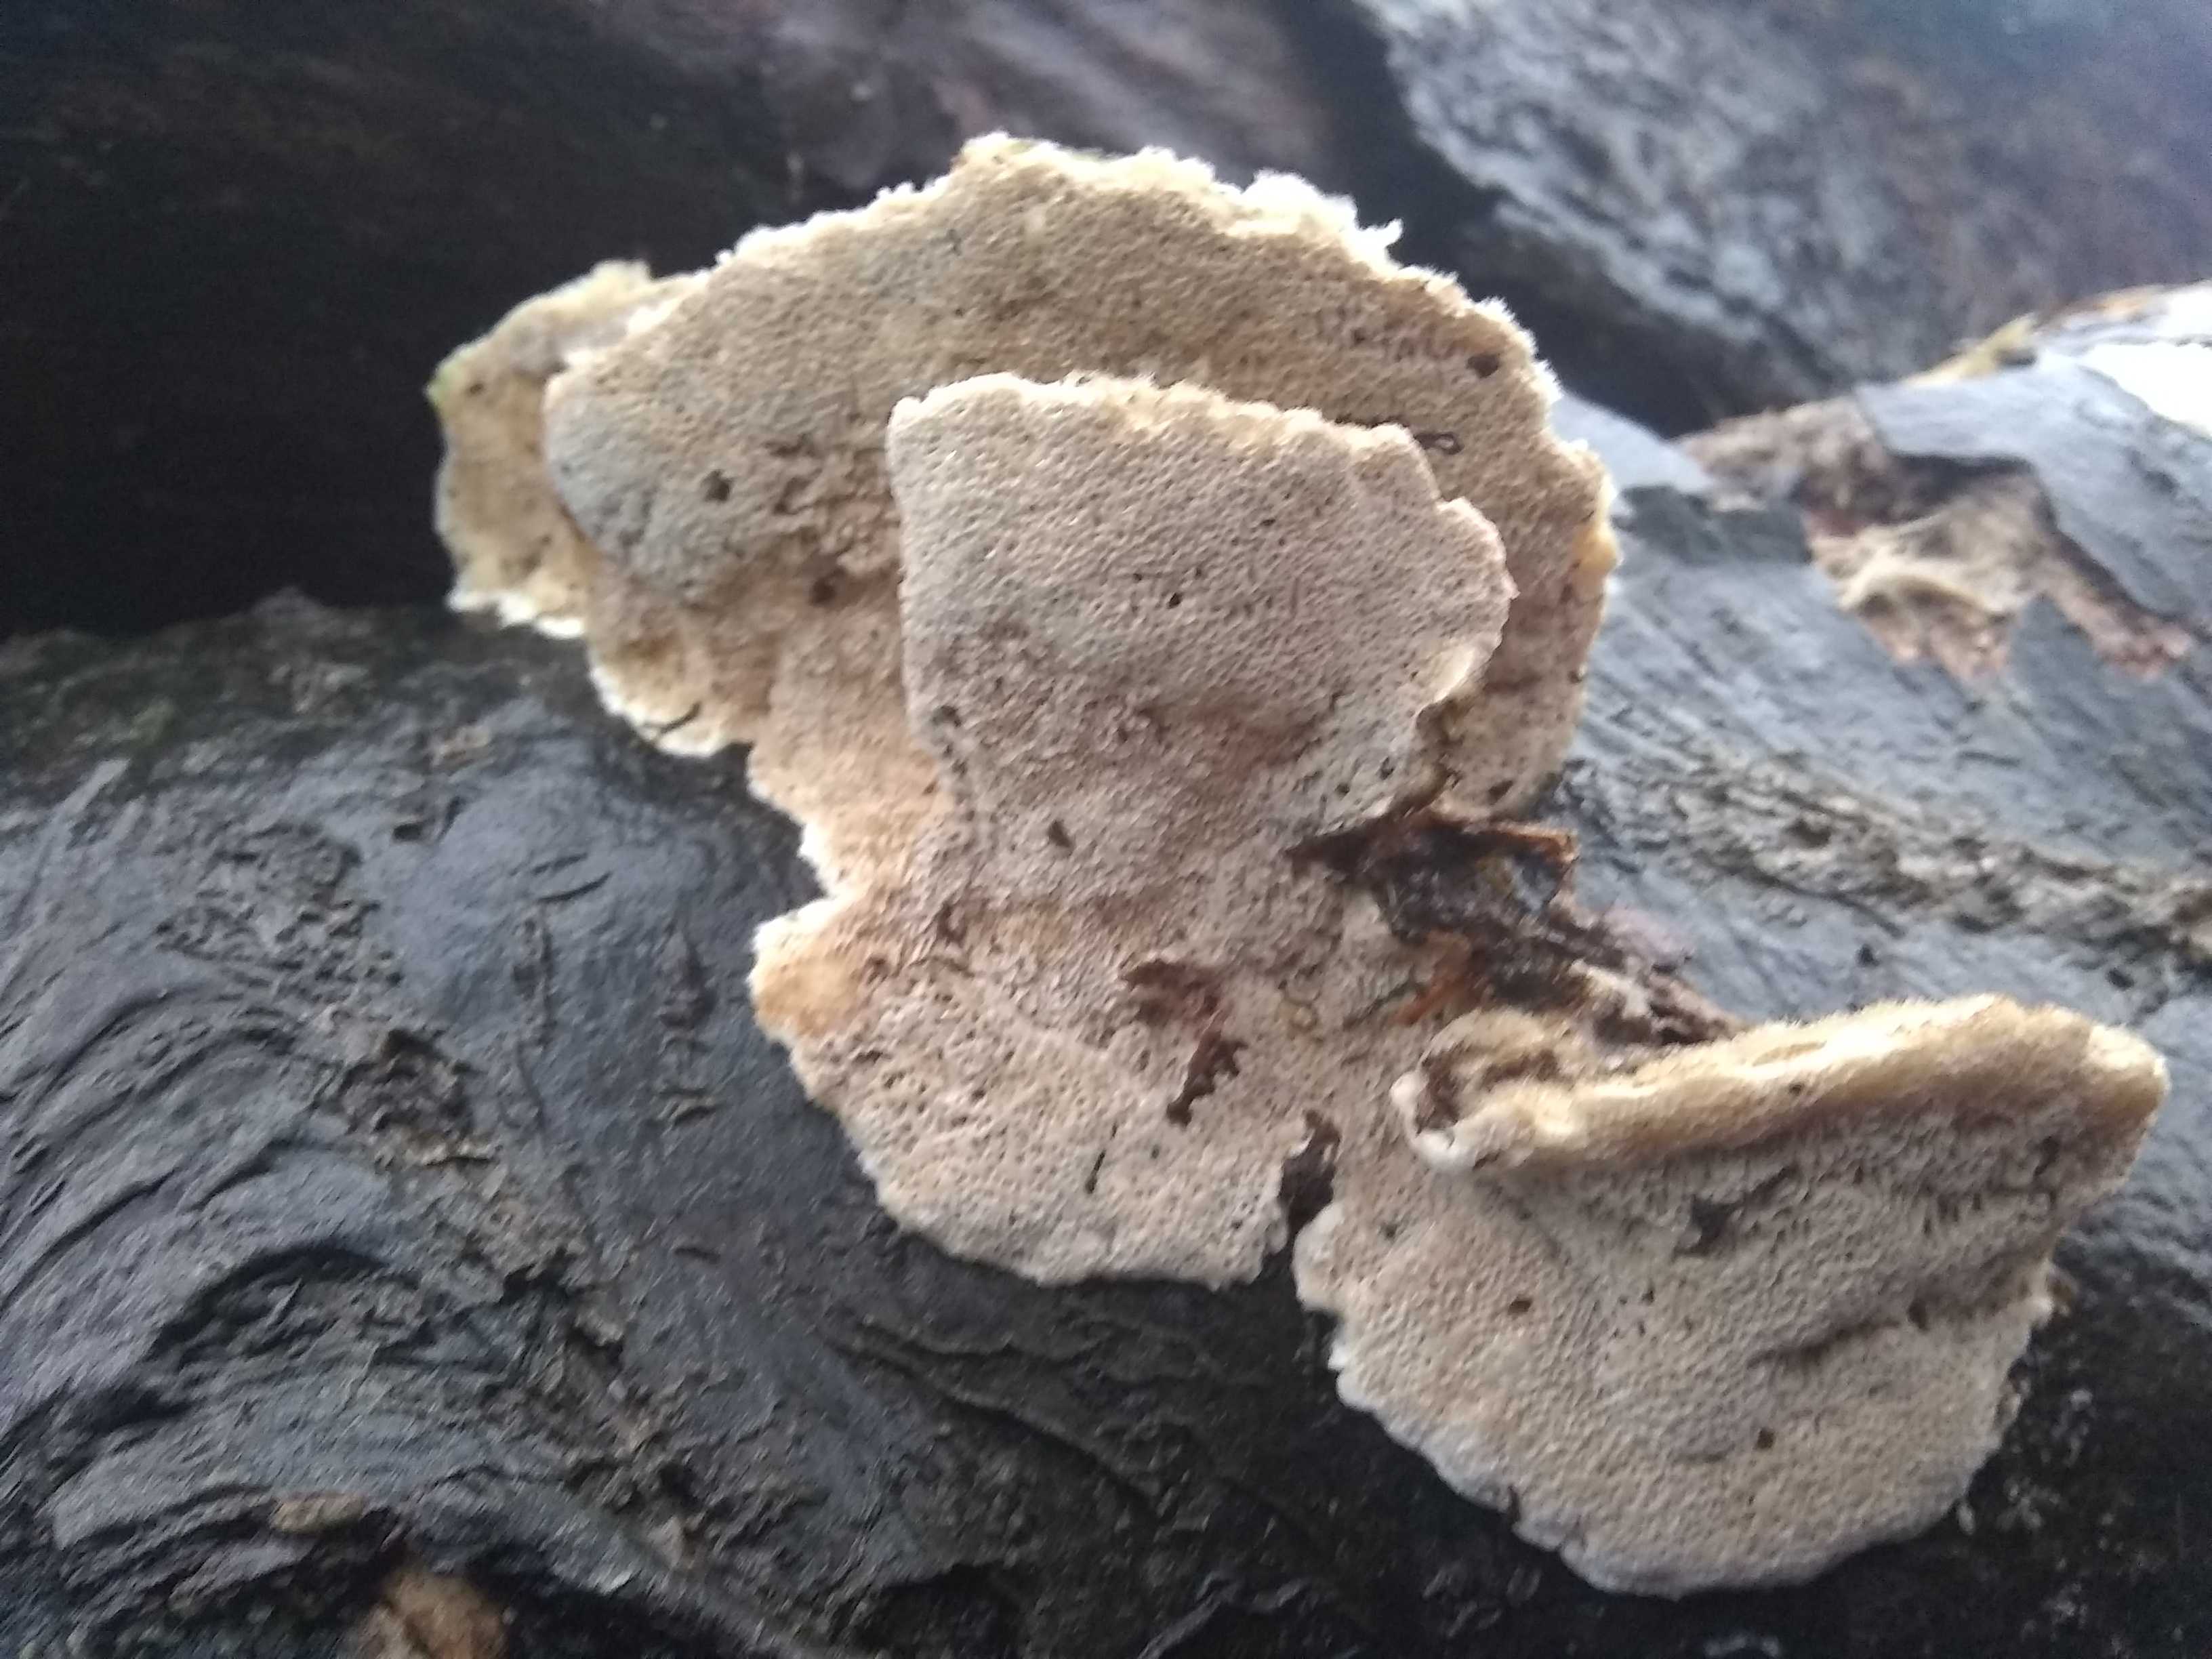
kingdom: Fungi
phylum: Basidiomycota
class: Agaricomycetes
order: Polyporales
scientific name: Polyporales
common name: poresvampordenen
